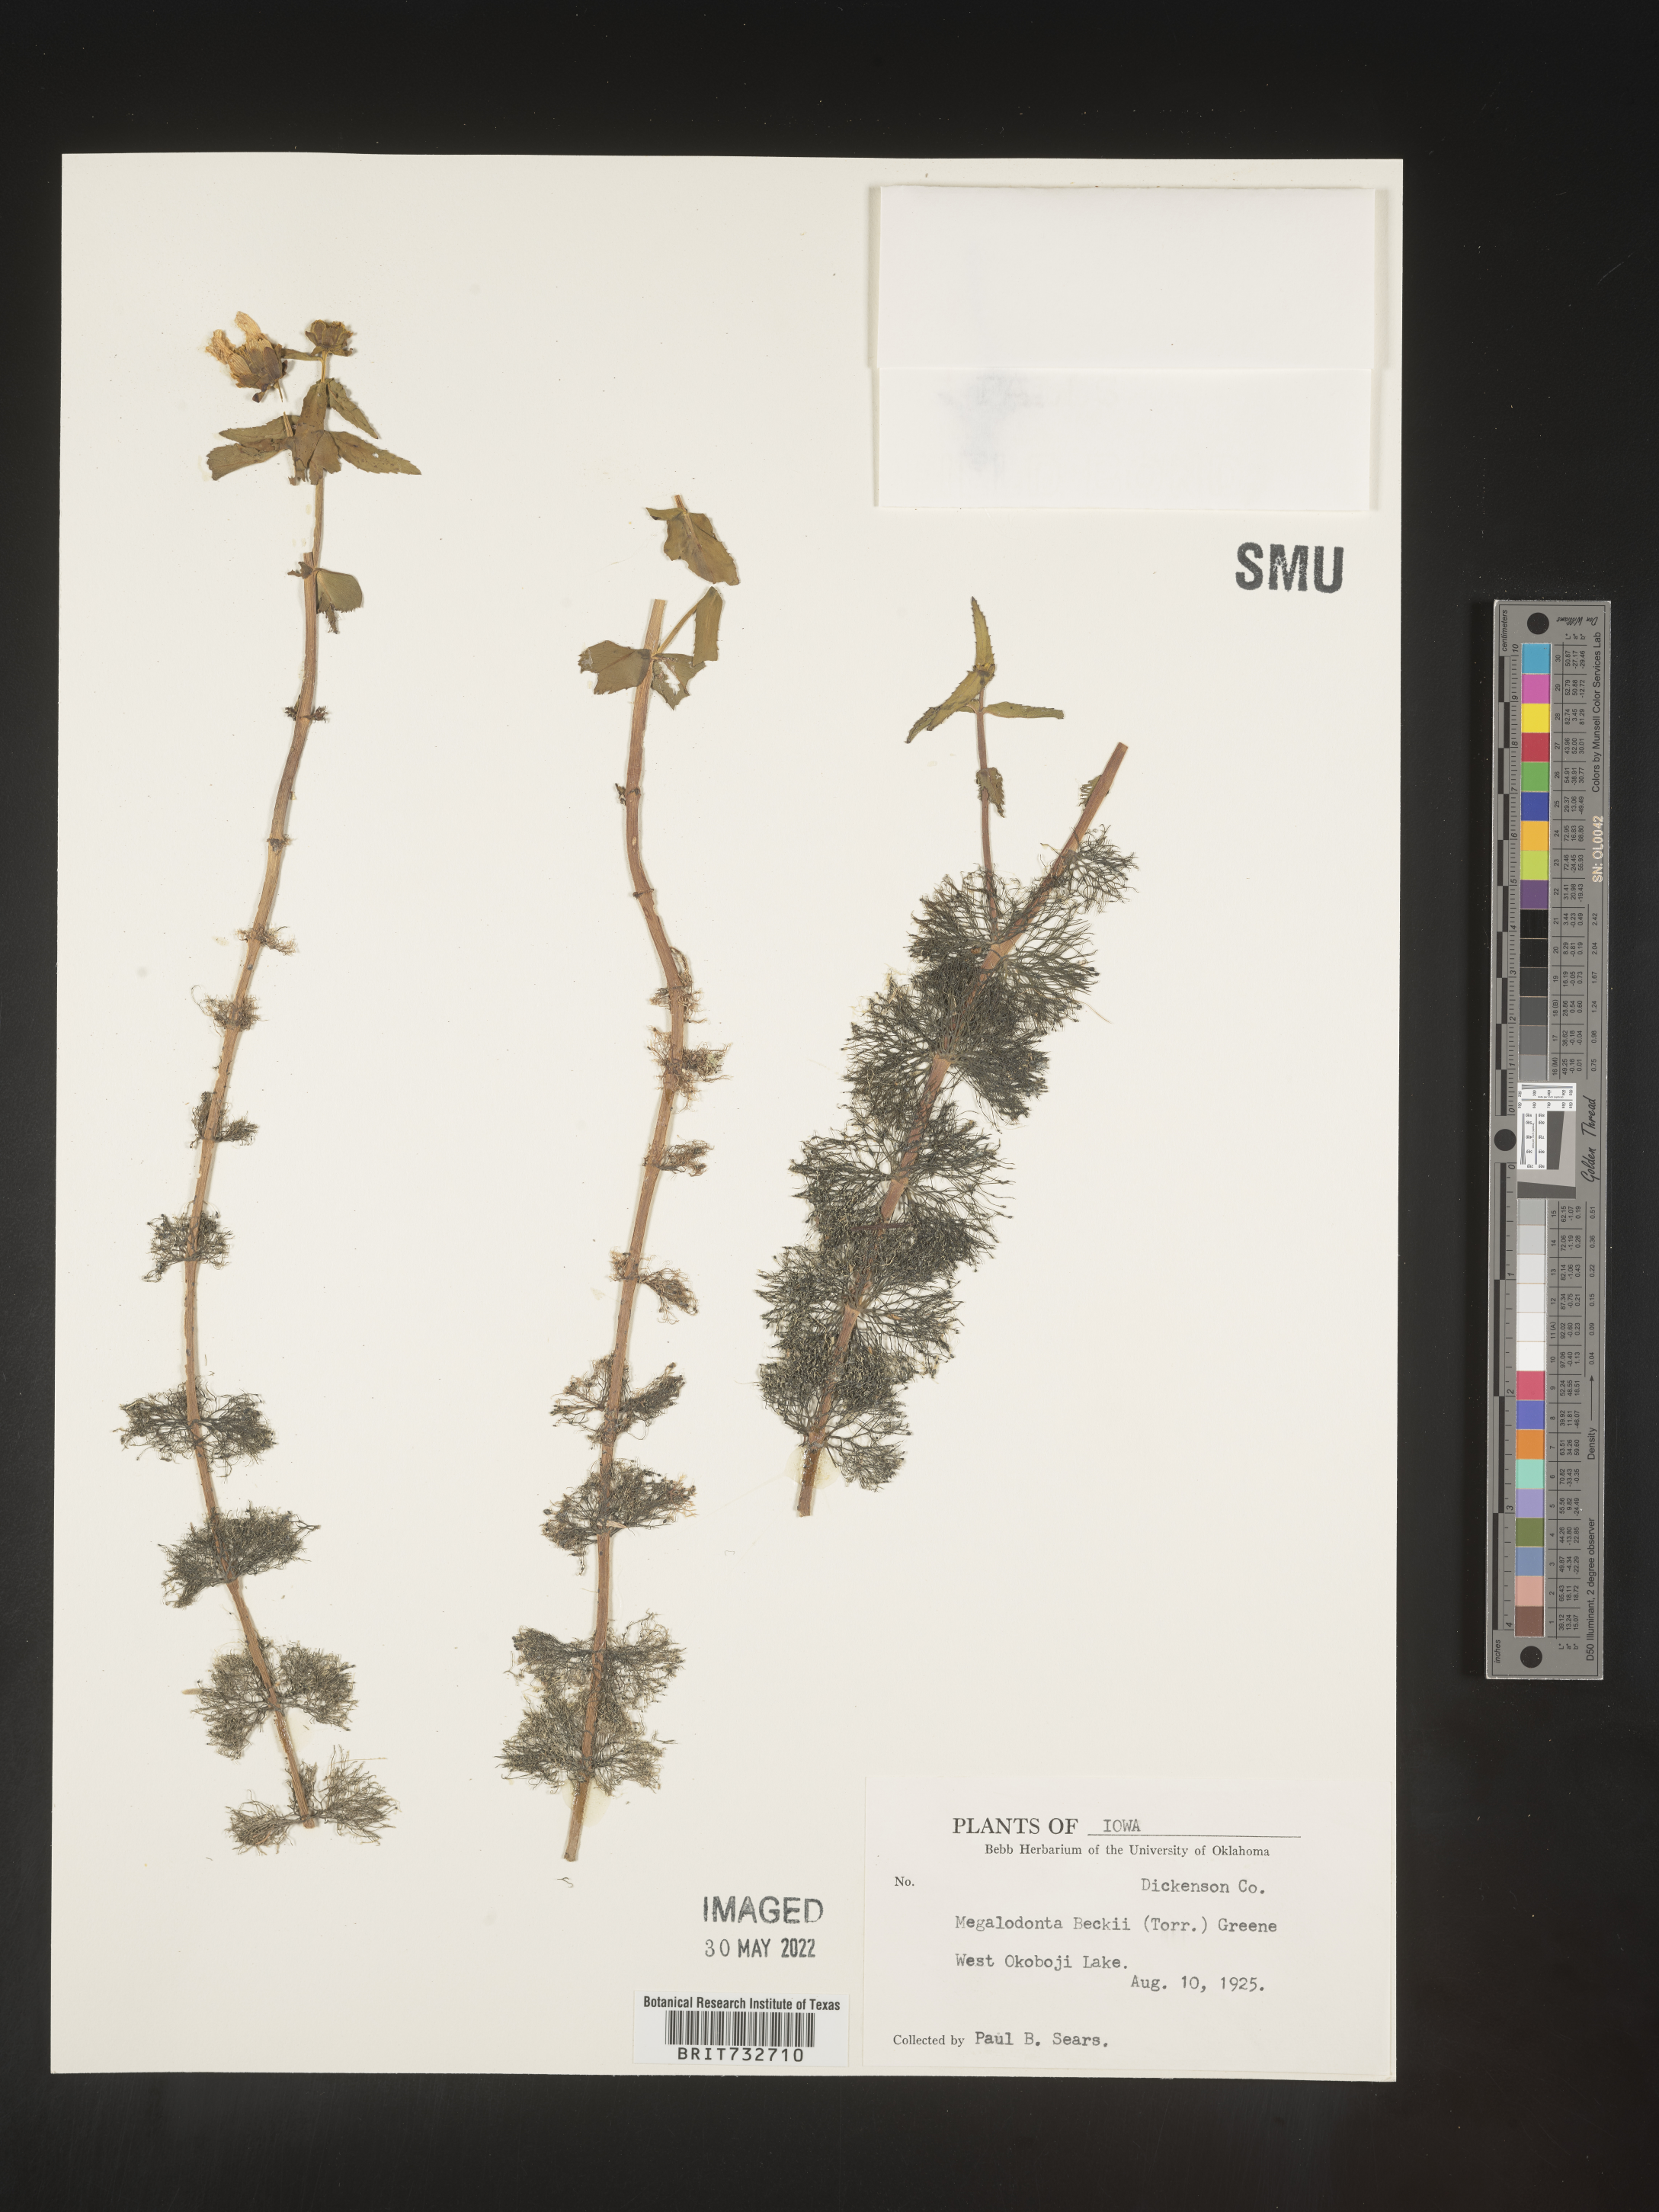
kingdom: Plantae
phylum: Tracheophyta
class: Magnoliopsida
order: Asterales
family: Asteraceae
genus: Bidens
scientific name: Bidens beckii
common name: Beck's beggarticks
